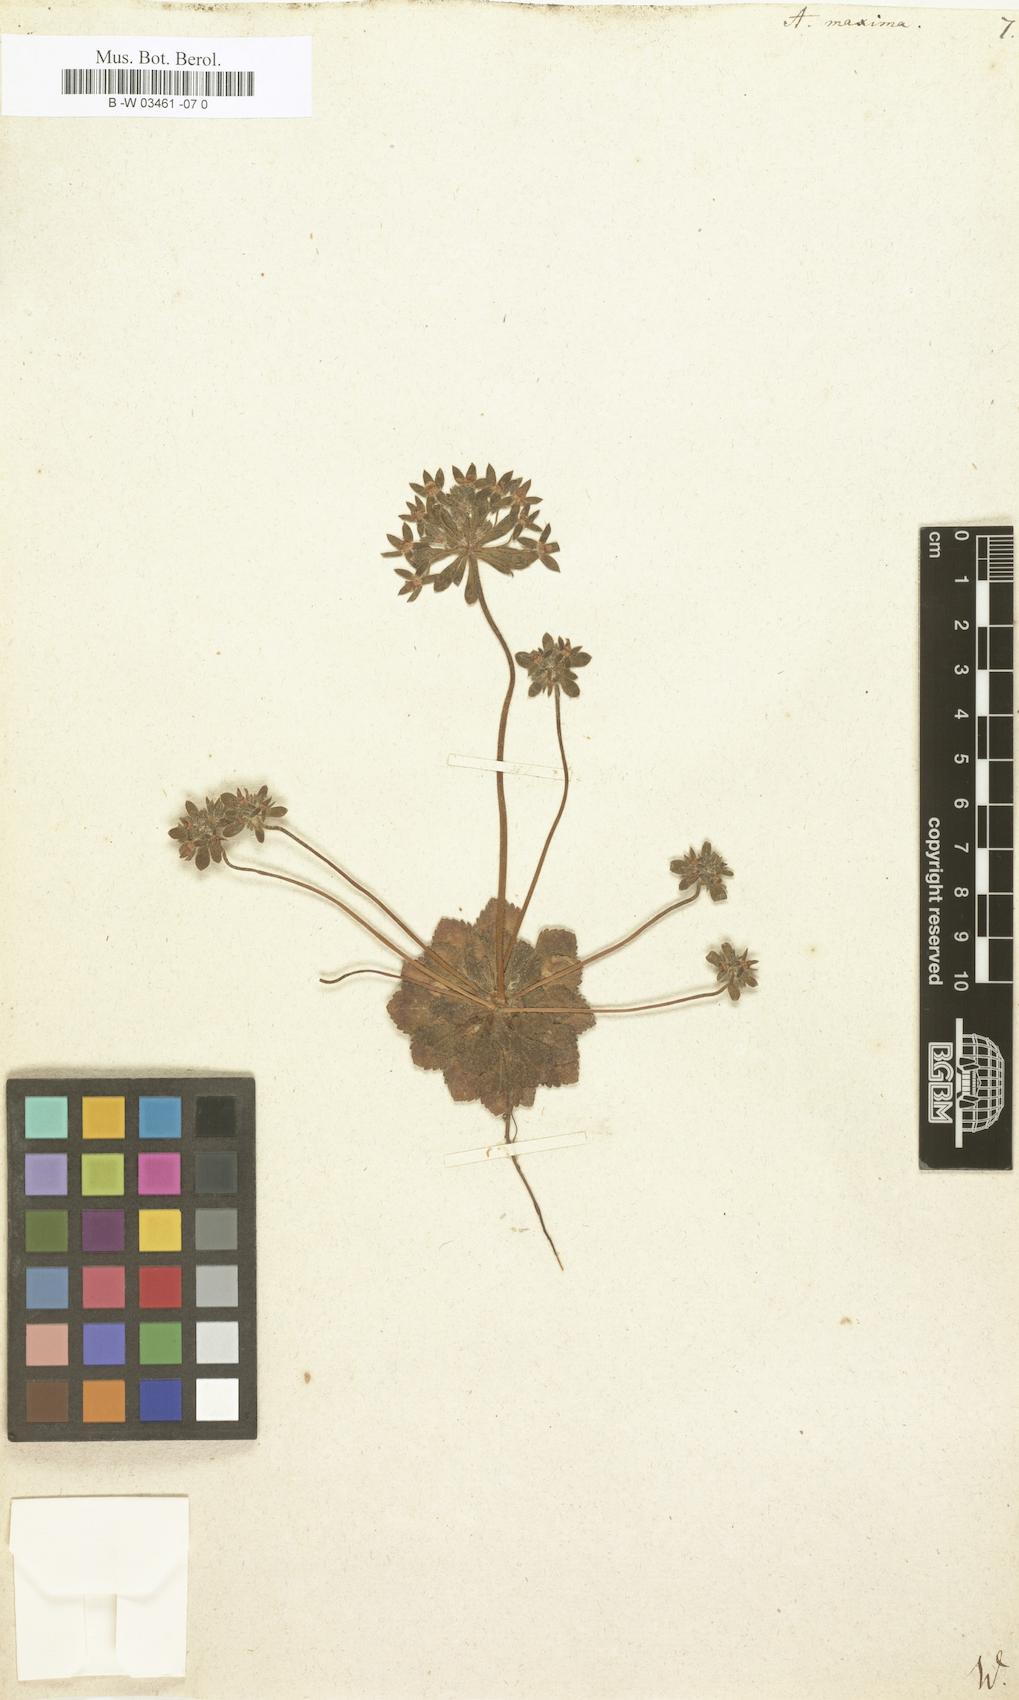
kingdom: Plantae
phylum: Tracheophyta
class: Magnoliopsida
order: Ericales
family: Primulaceae
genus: Androsace
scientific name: Androsace maxima
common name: Annual androsace
